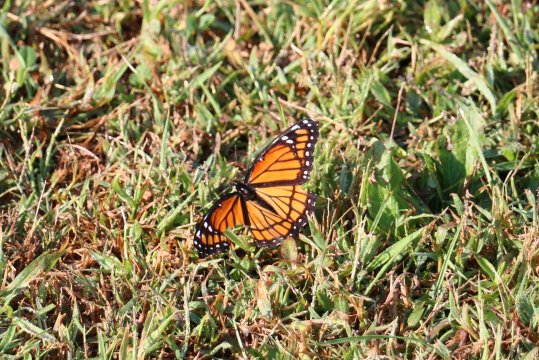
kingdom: Animalia
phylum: Arthropoda
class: Insecta
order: Lepidoptera
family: Nymphalidae
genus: Limenitis
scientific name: Limenitis archippus
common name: Viceroy
